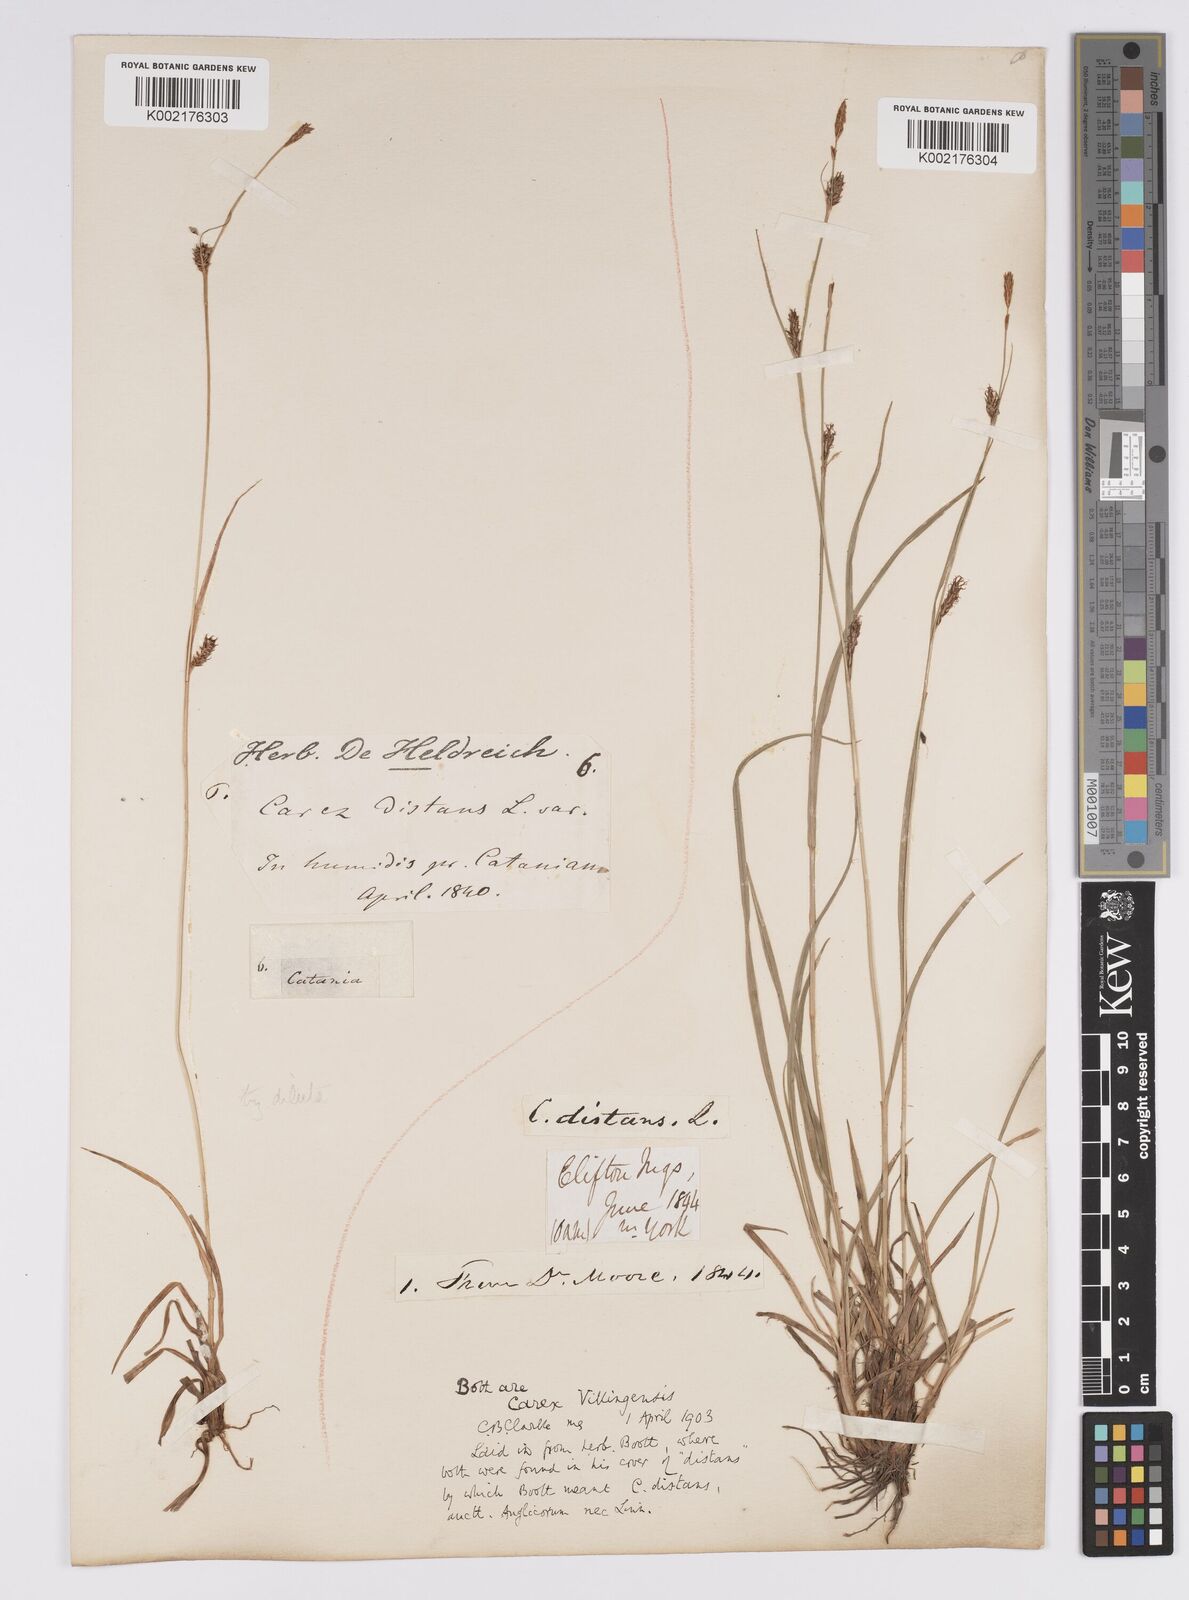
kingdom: Plantae
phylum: Tracheophyta
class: Liliopsida
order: Poales
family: Cyperaceae
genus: Carex
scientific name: Carex distans
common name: Distant sedge
